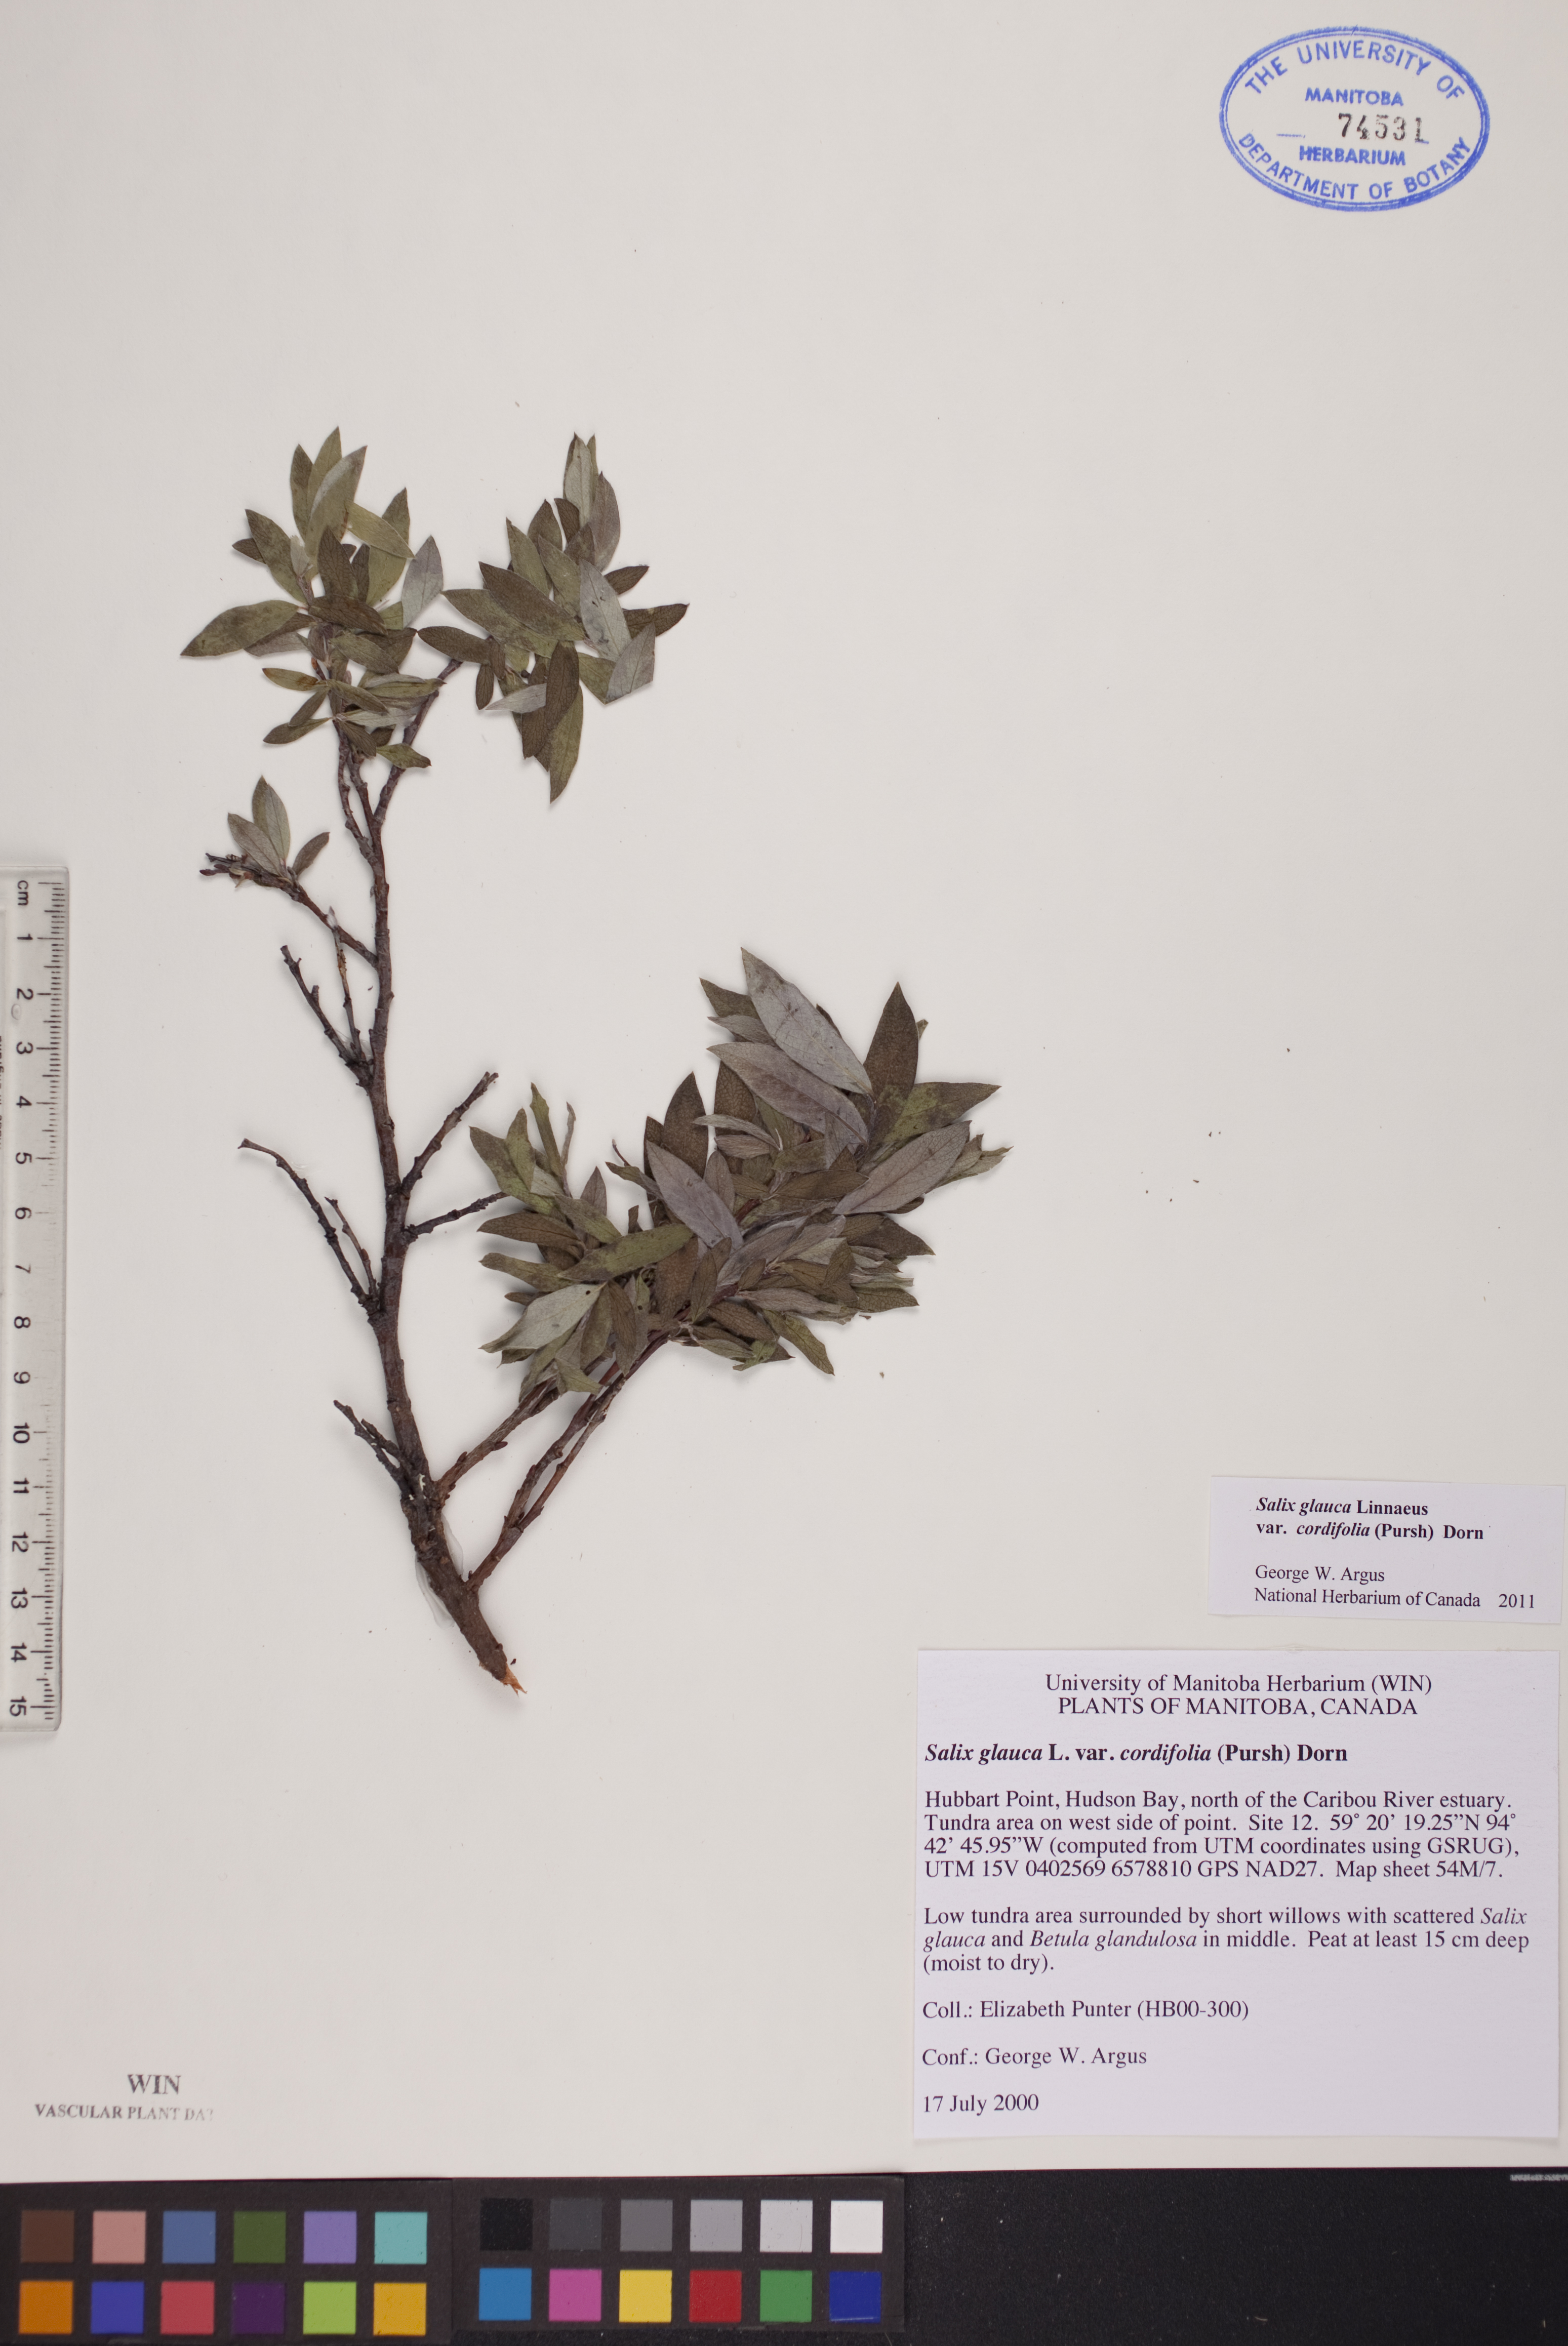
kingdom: Plantae
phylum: Tracheophyta
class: Magnoliopsida
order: Malpighiales
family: Salicaceae
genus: Salix
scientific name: Salix glauca
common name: Glaucous willow
